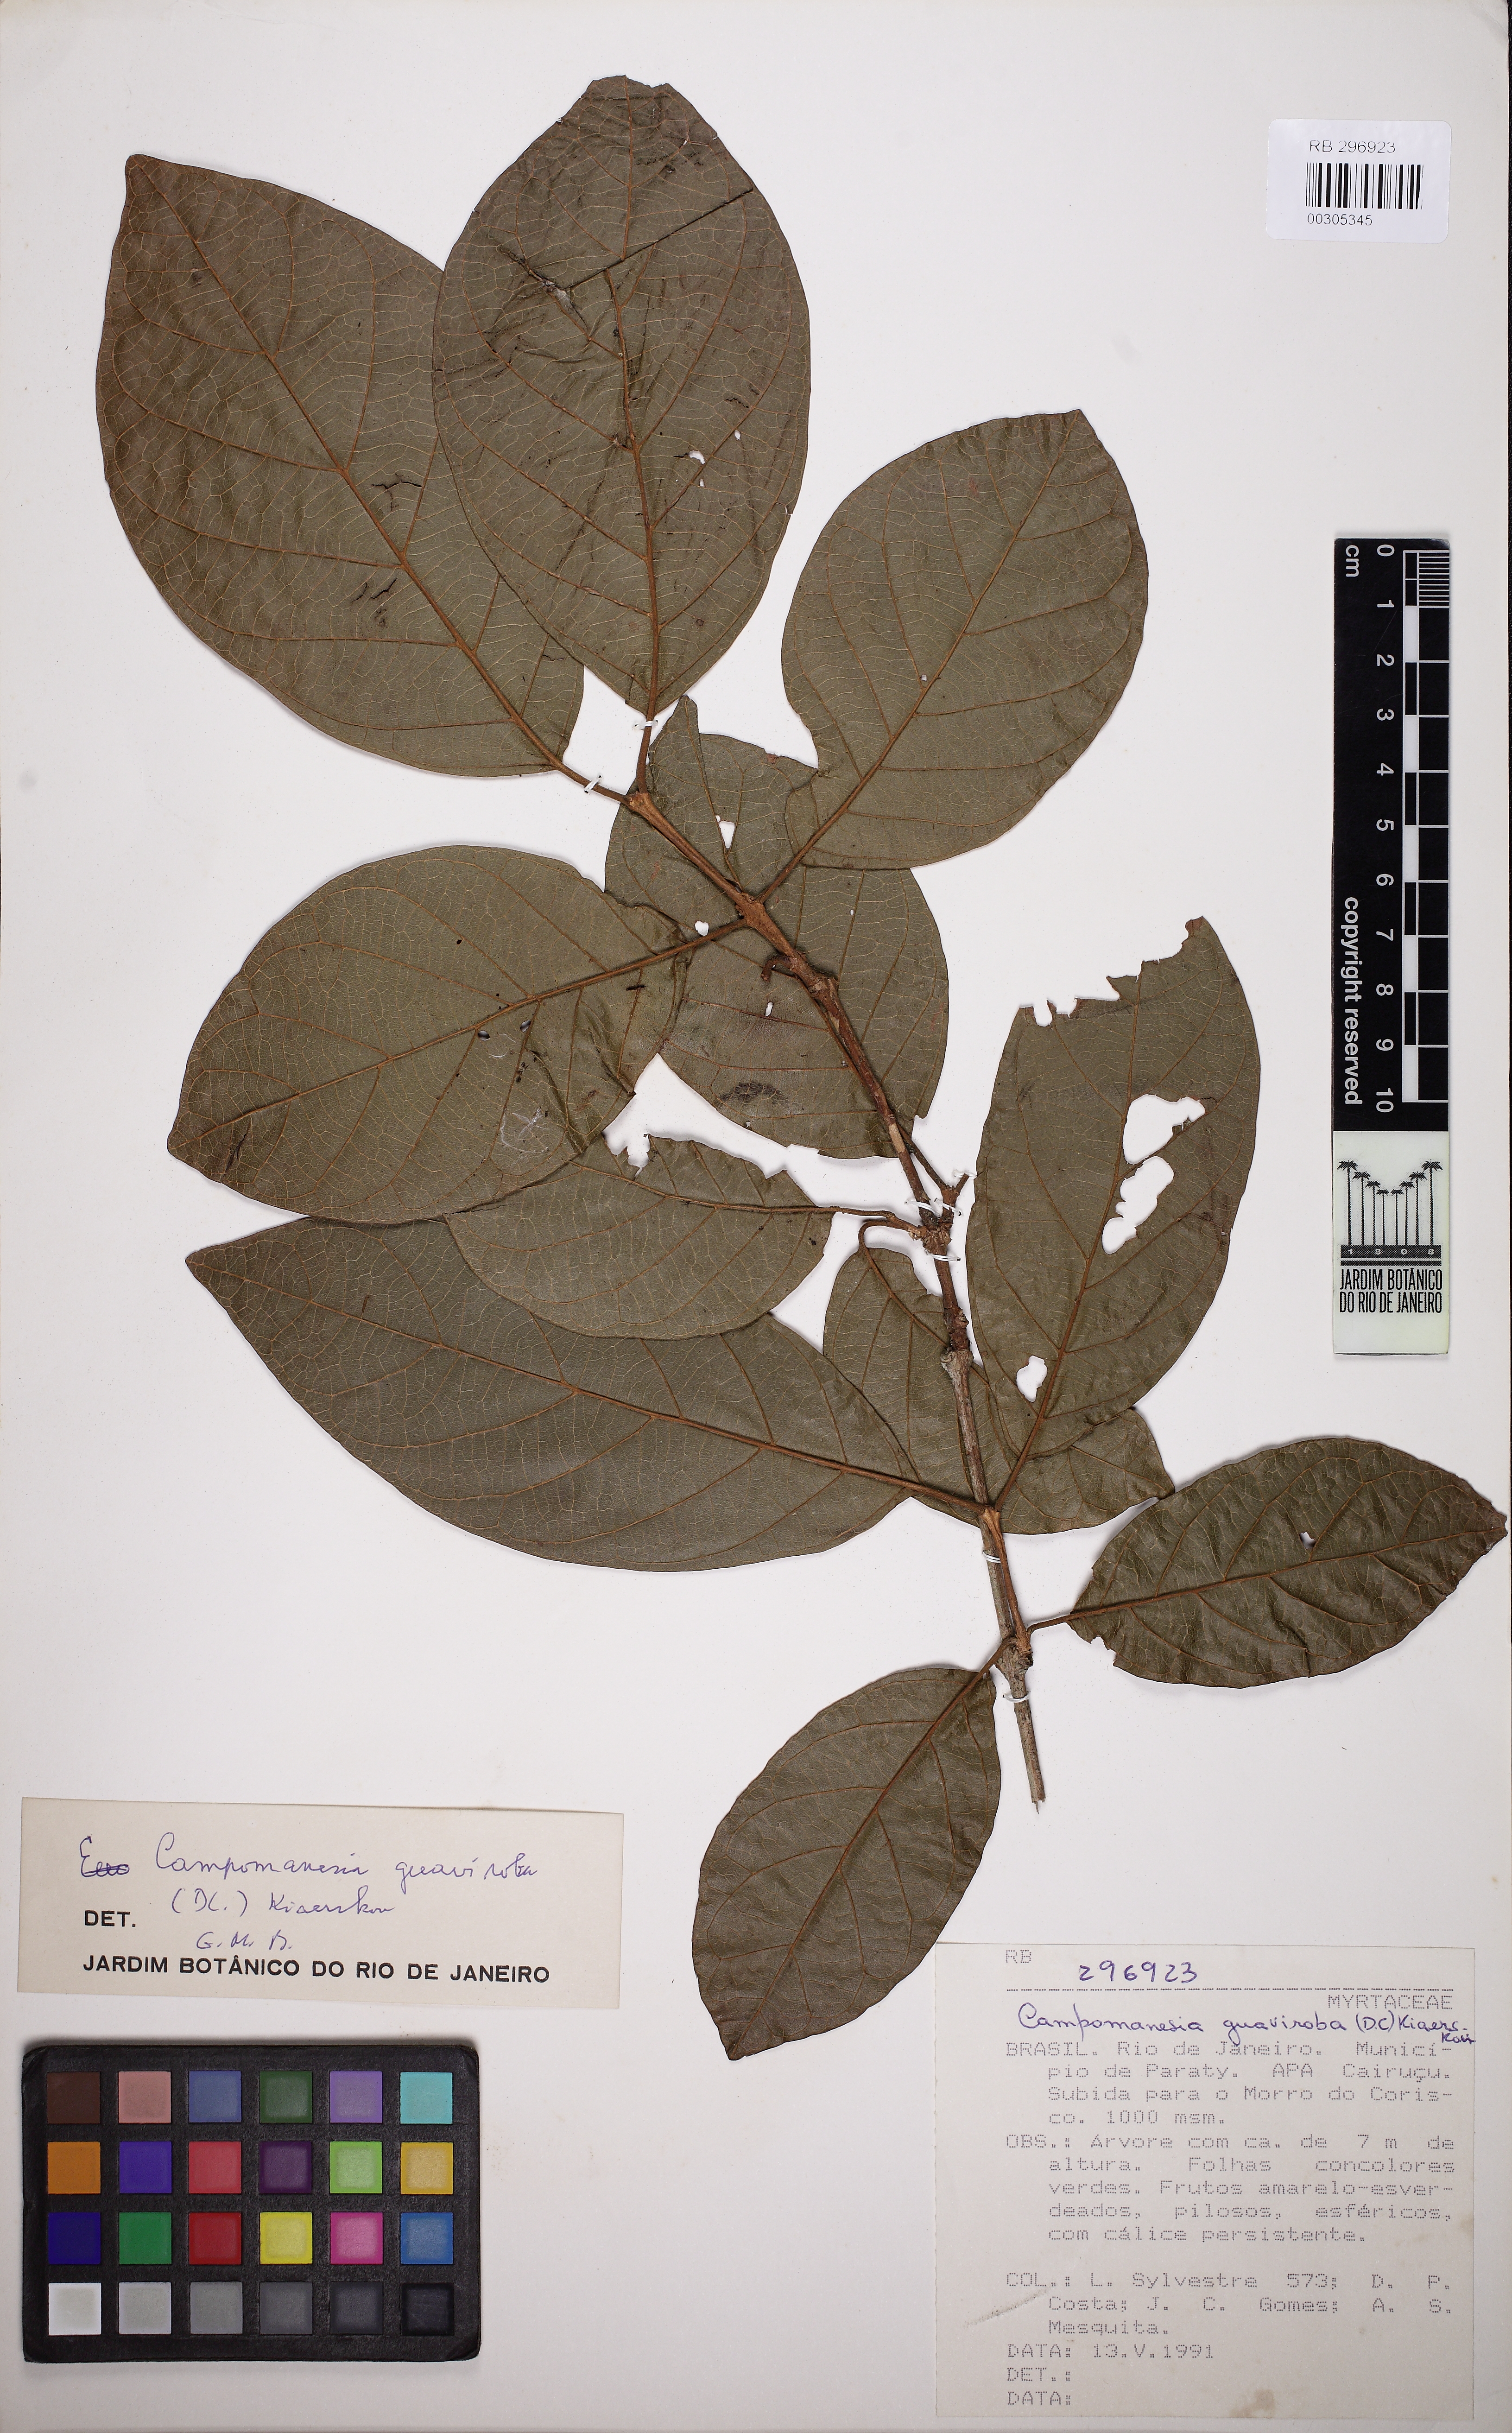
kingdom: Plantae
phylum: Tracheophyta
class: Magnoliopsida
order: Myrtales
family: Myrtaceae
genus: Campomanesia
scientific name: Campomanesia guaviroba
